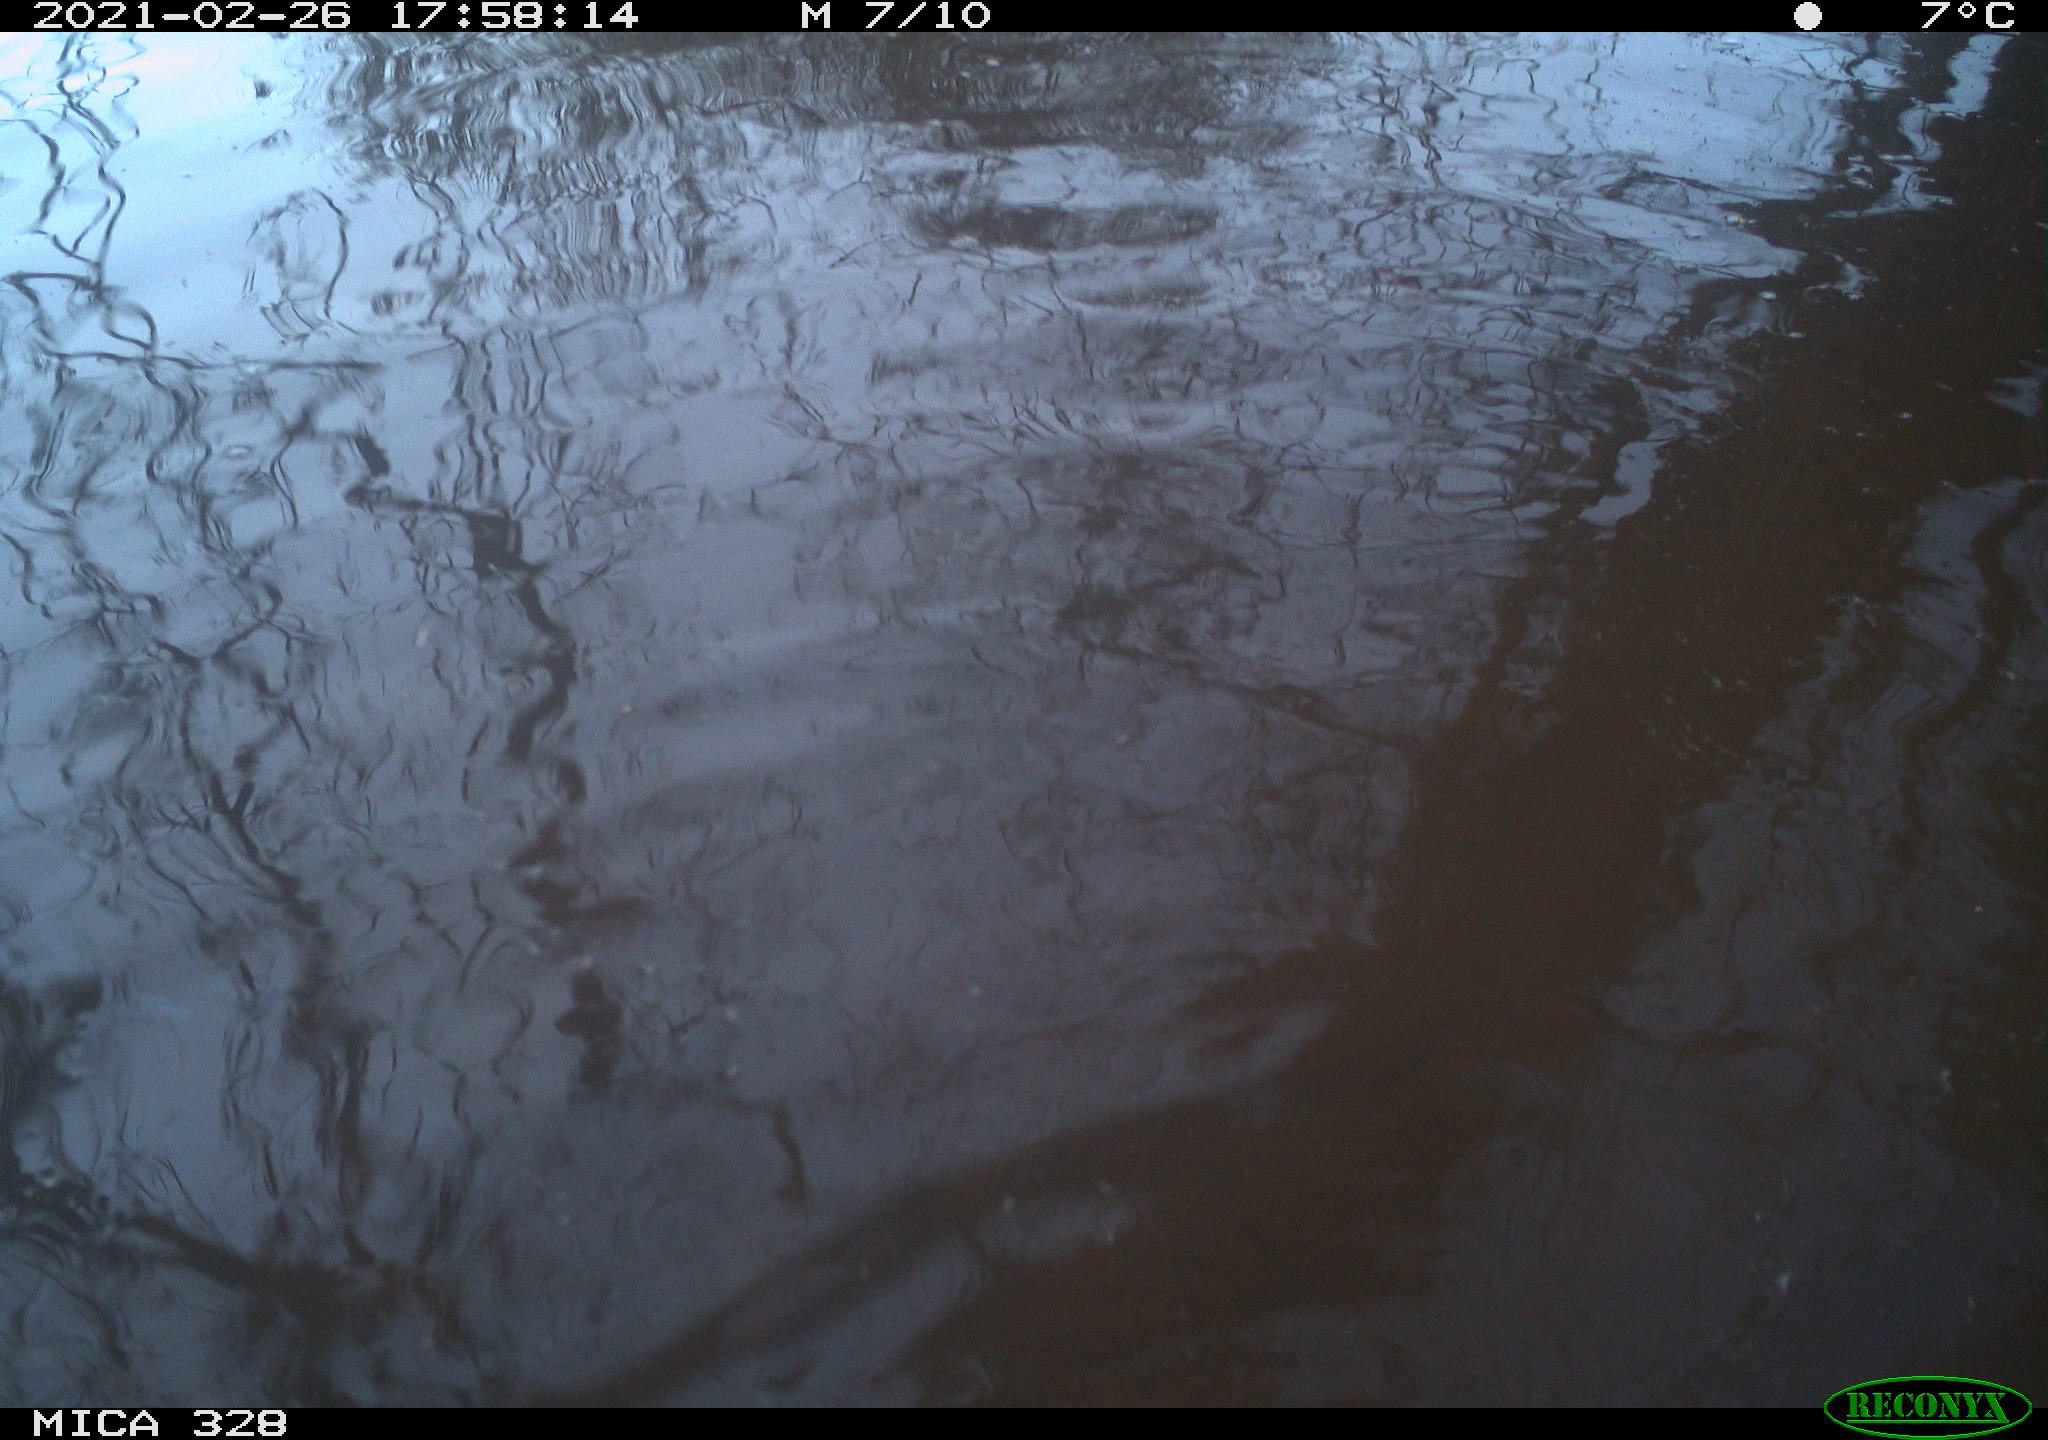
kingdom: Animalia
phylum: Chordata
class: Mammalia
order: Rodentia
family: Cricetidae
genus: Ondatra
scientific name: Ondatra zibethicus
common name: Muskrat
